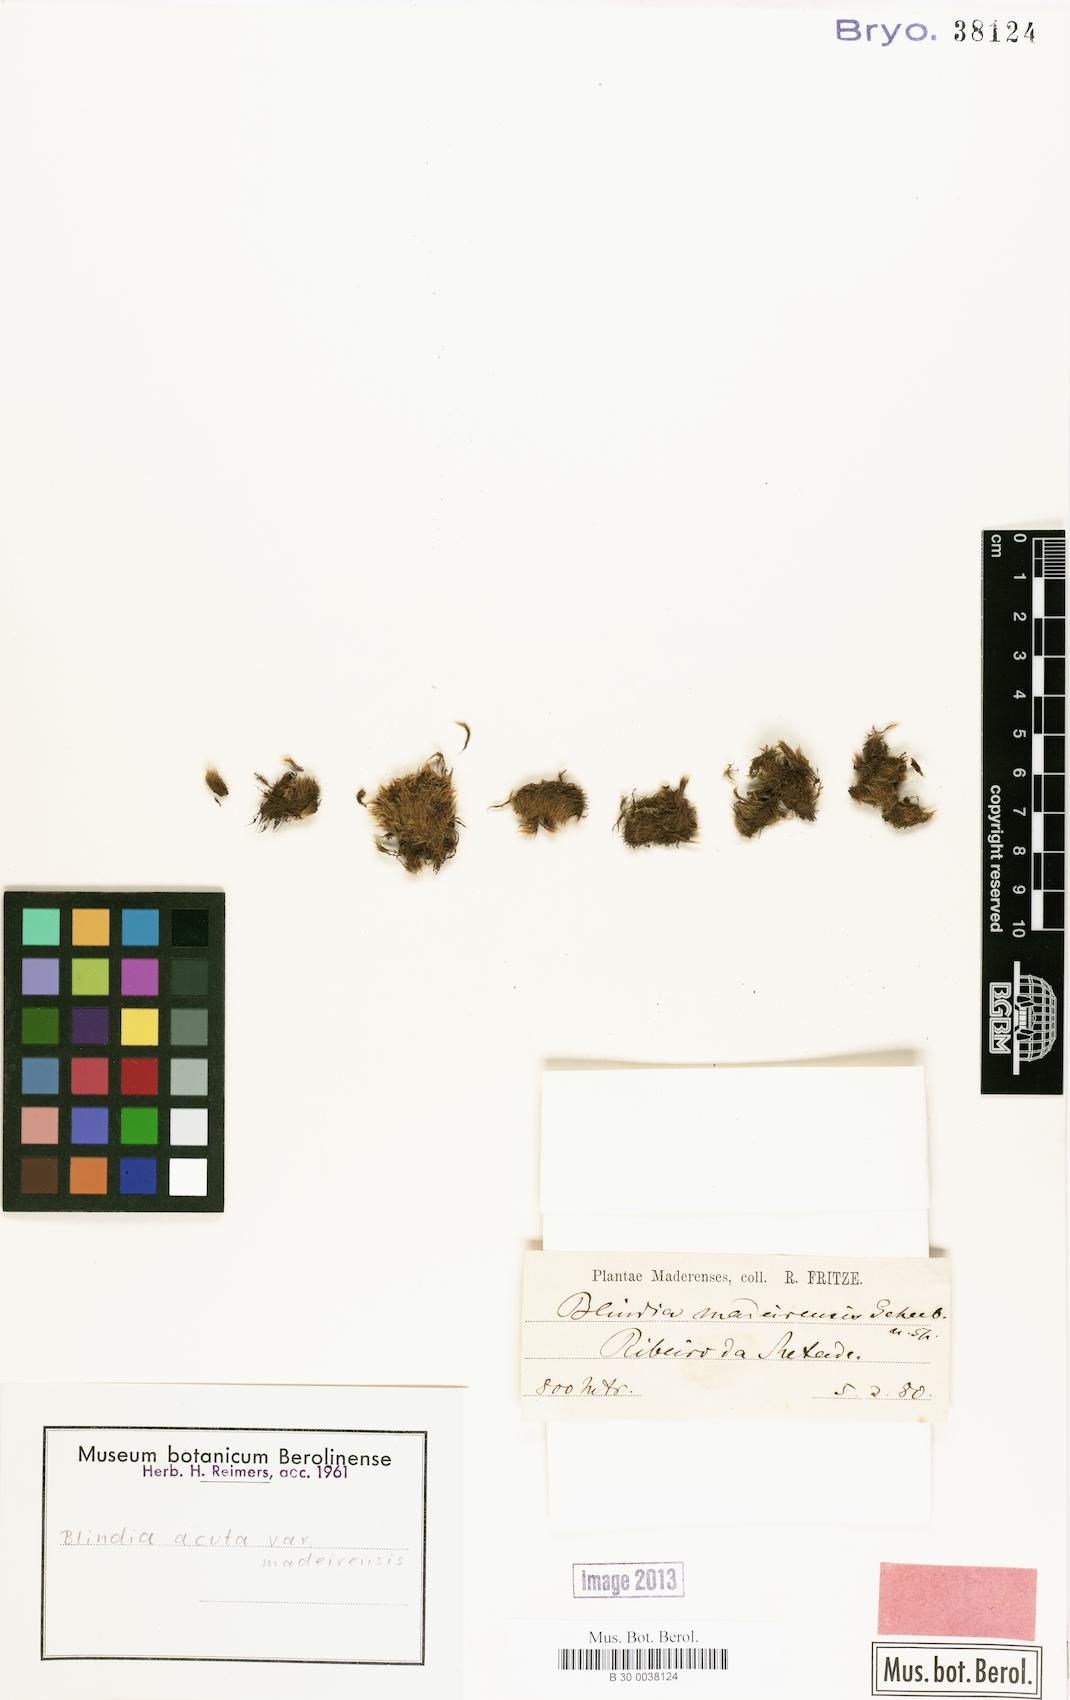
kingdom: Plantae
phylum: Bryophyta
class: Bryopsida
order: Grimmiales
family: Seligeriaceae
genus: Blindia
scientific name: Blindia acuta
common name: Sharp-leaved blind's moss
